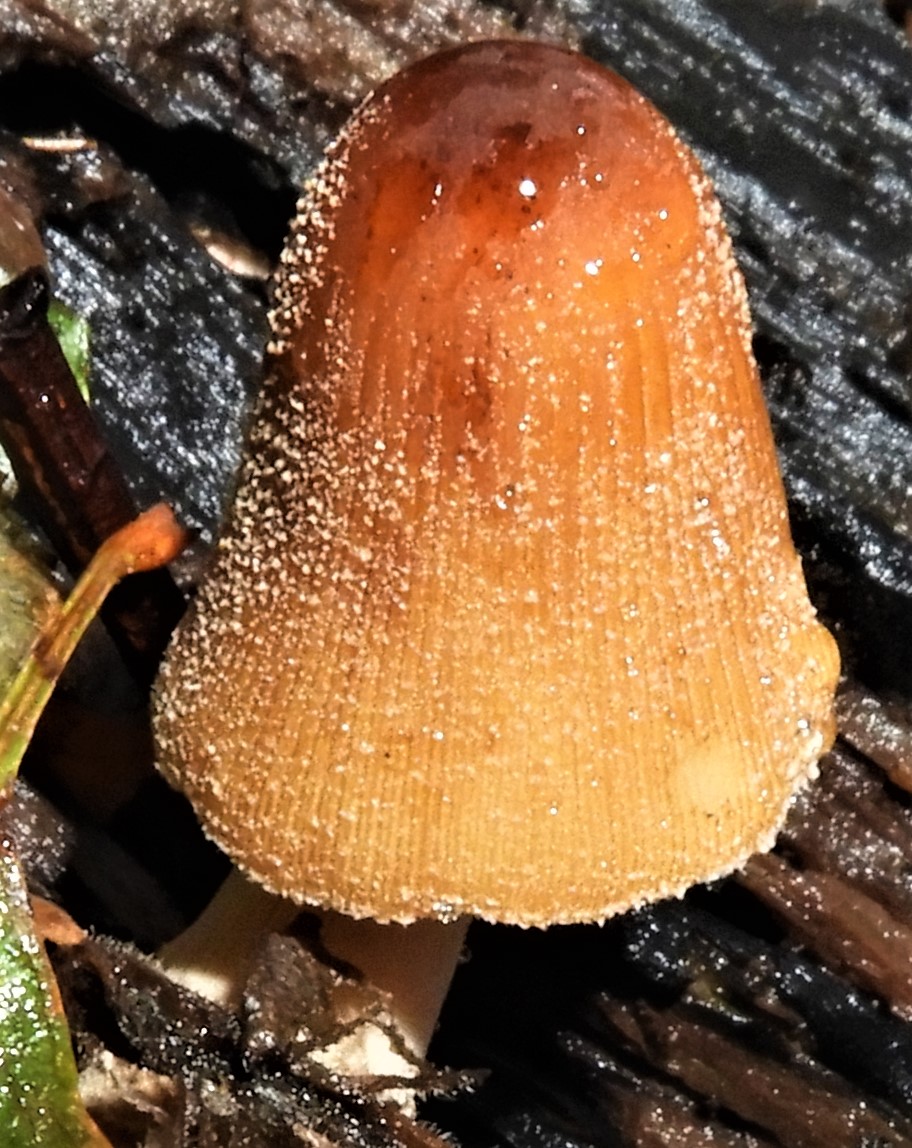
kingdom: Fungi
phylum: Basidiomycota
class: Agaricomycetes
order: Agaricales
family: Psathyrellaceae
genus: Coprinellus
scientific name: Coprinellus micaceus
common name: glimmer-blækhat
